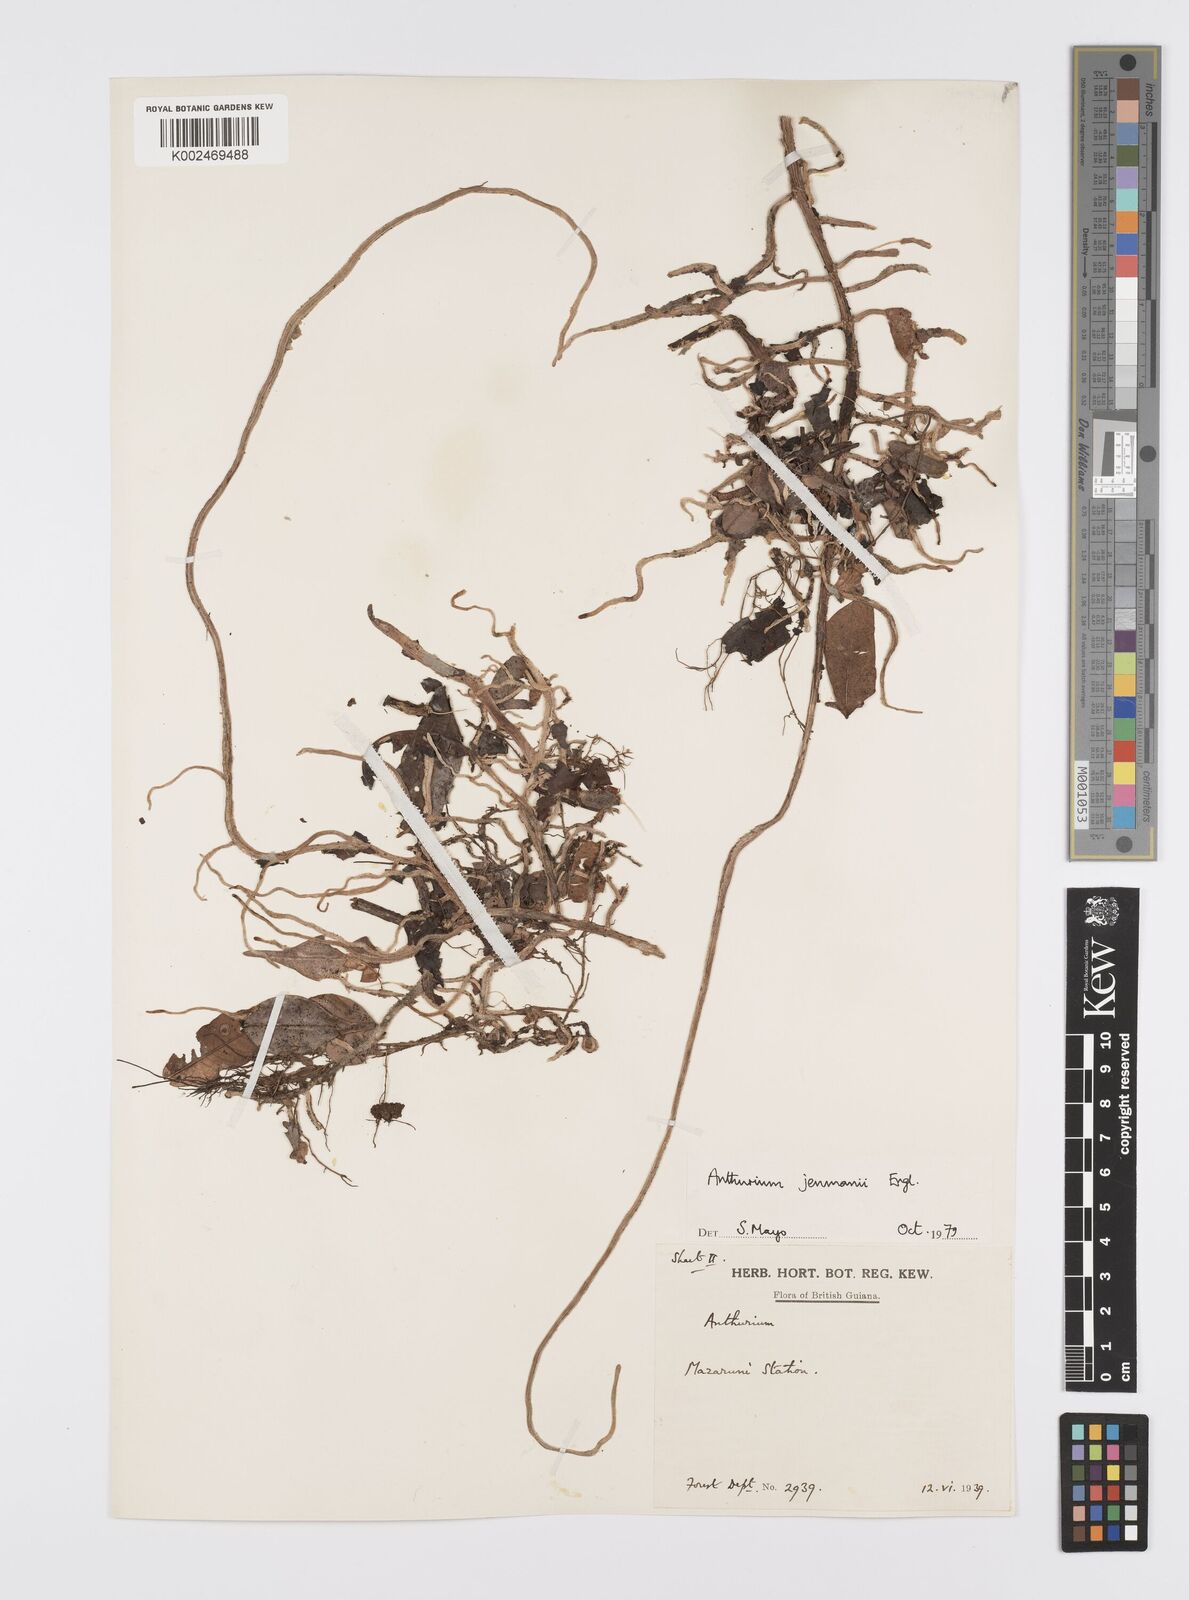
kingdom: Plantae
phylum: Tracheophyta
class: Liliopsida
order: Alismatales
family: Araceae
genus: Anthurium
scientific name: Anthurium jenmanii
